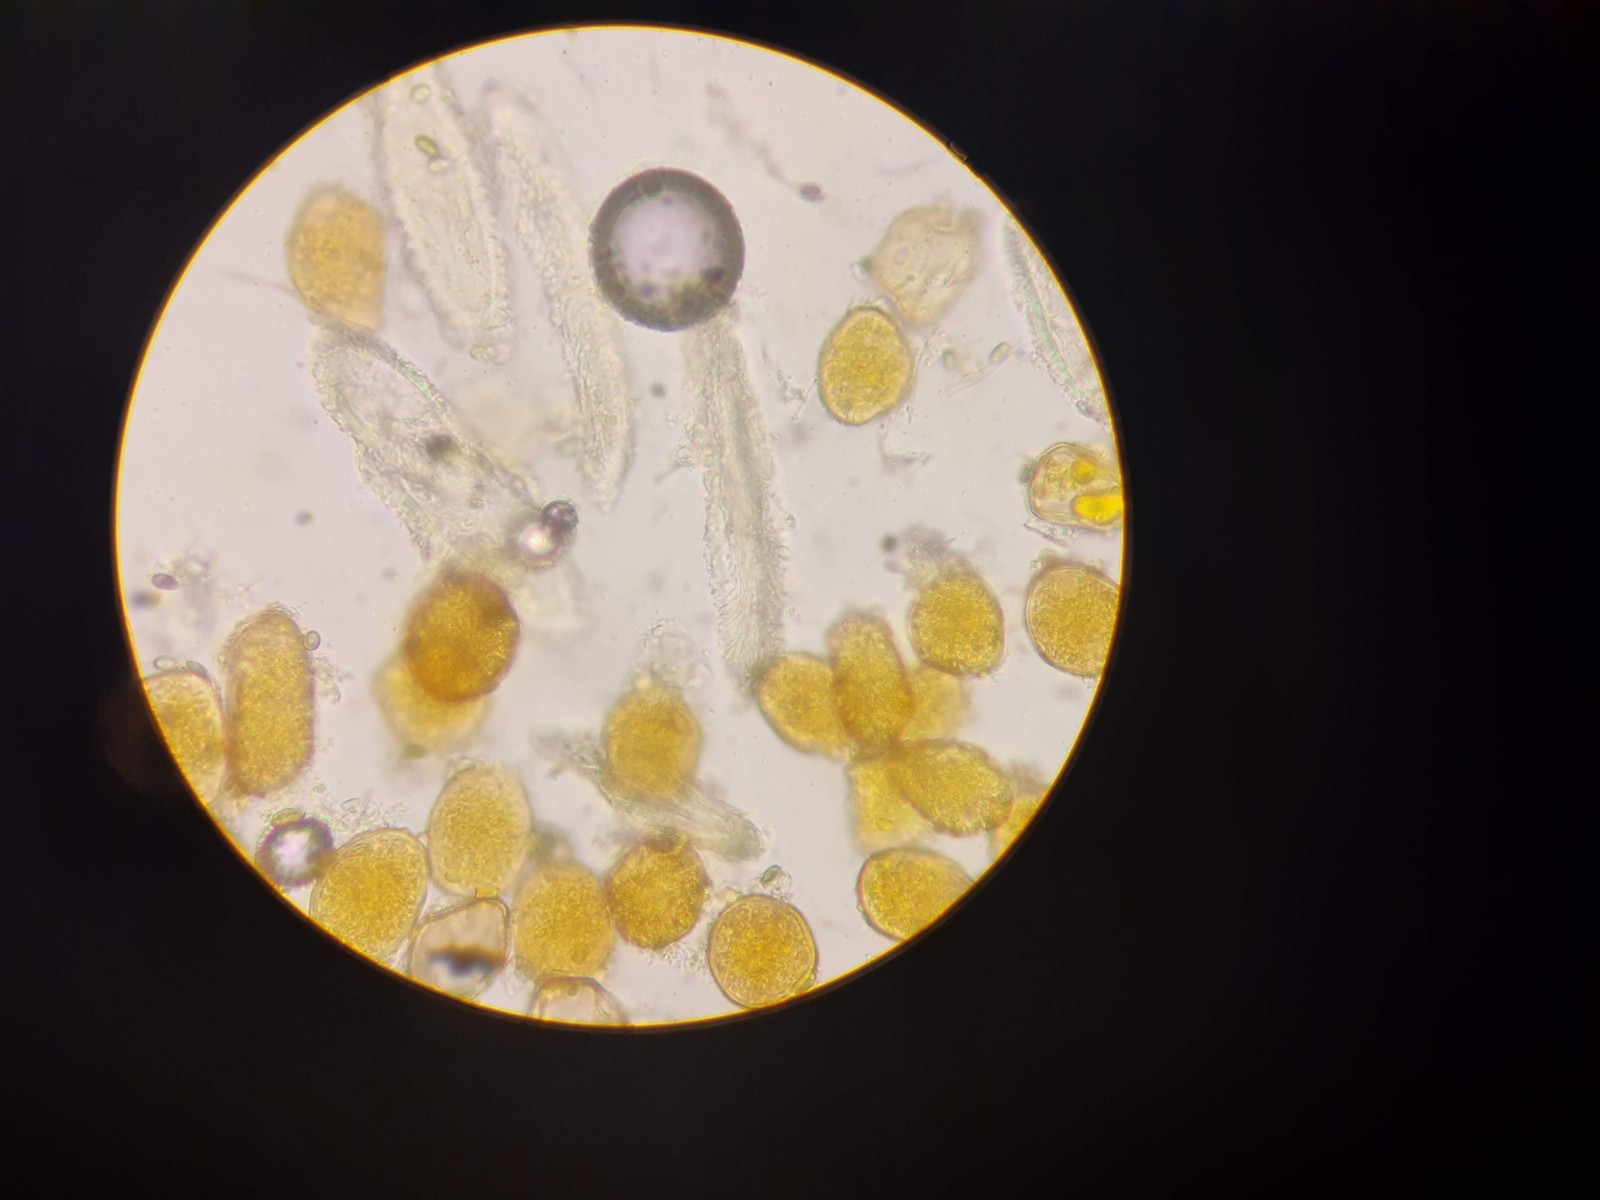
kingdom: Fungi
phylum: Basidiomycota
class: Pucciniomycetes
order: Pucciniales
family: Gymnosporangiaceae
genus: Gymnosporangium
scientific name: Gymnosporangium confusum
